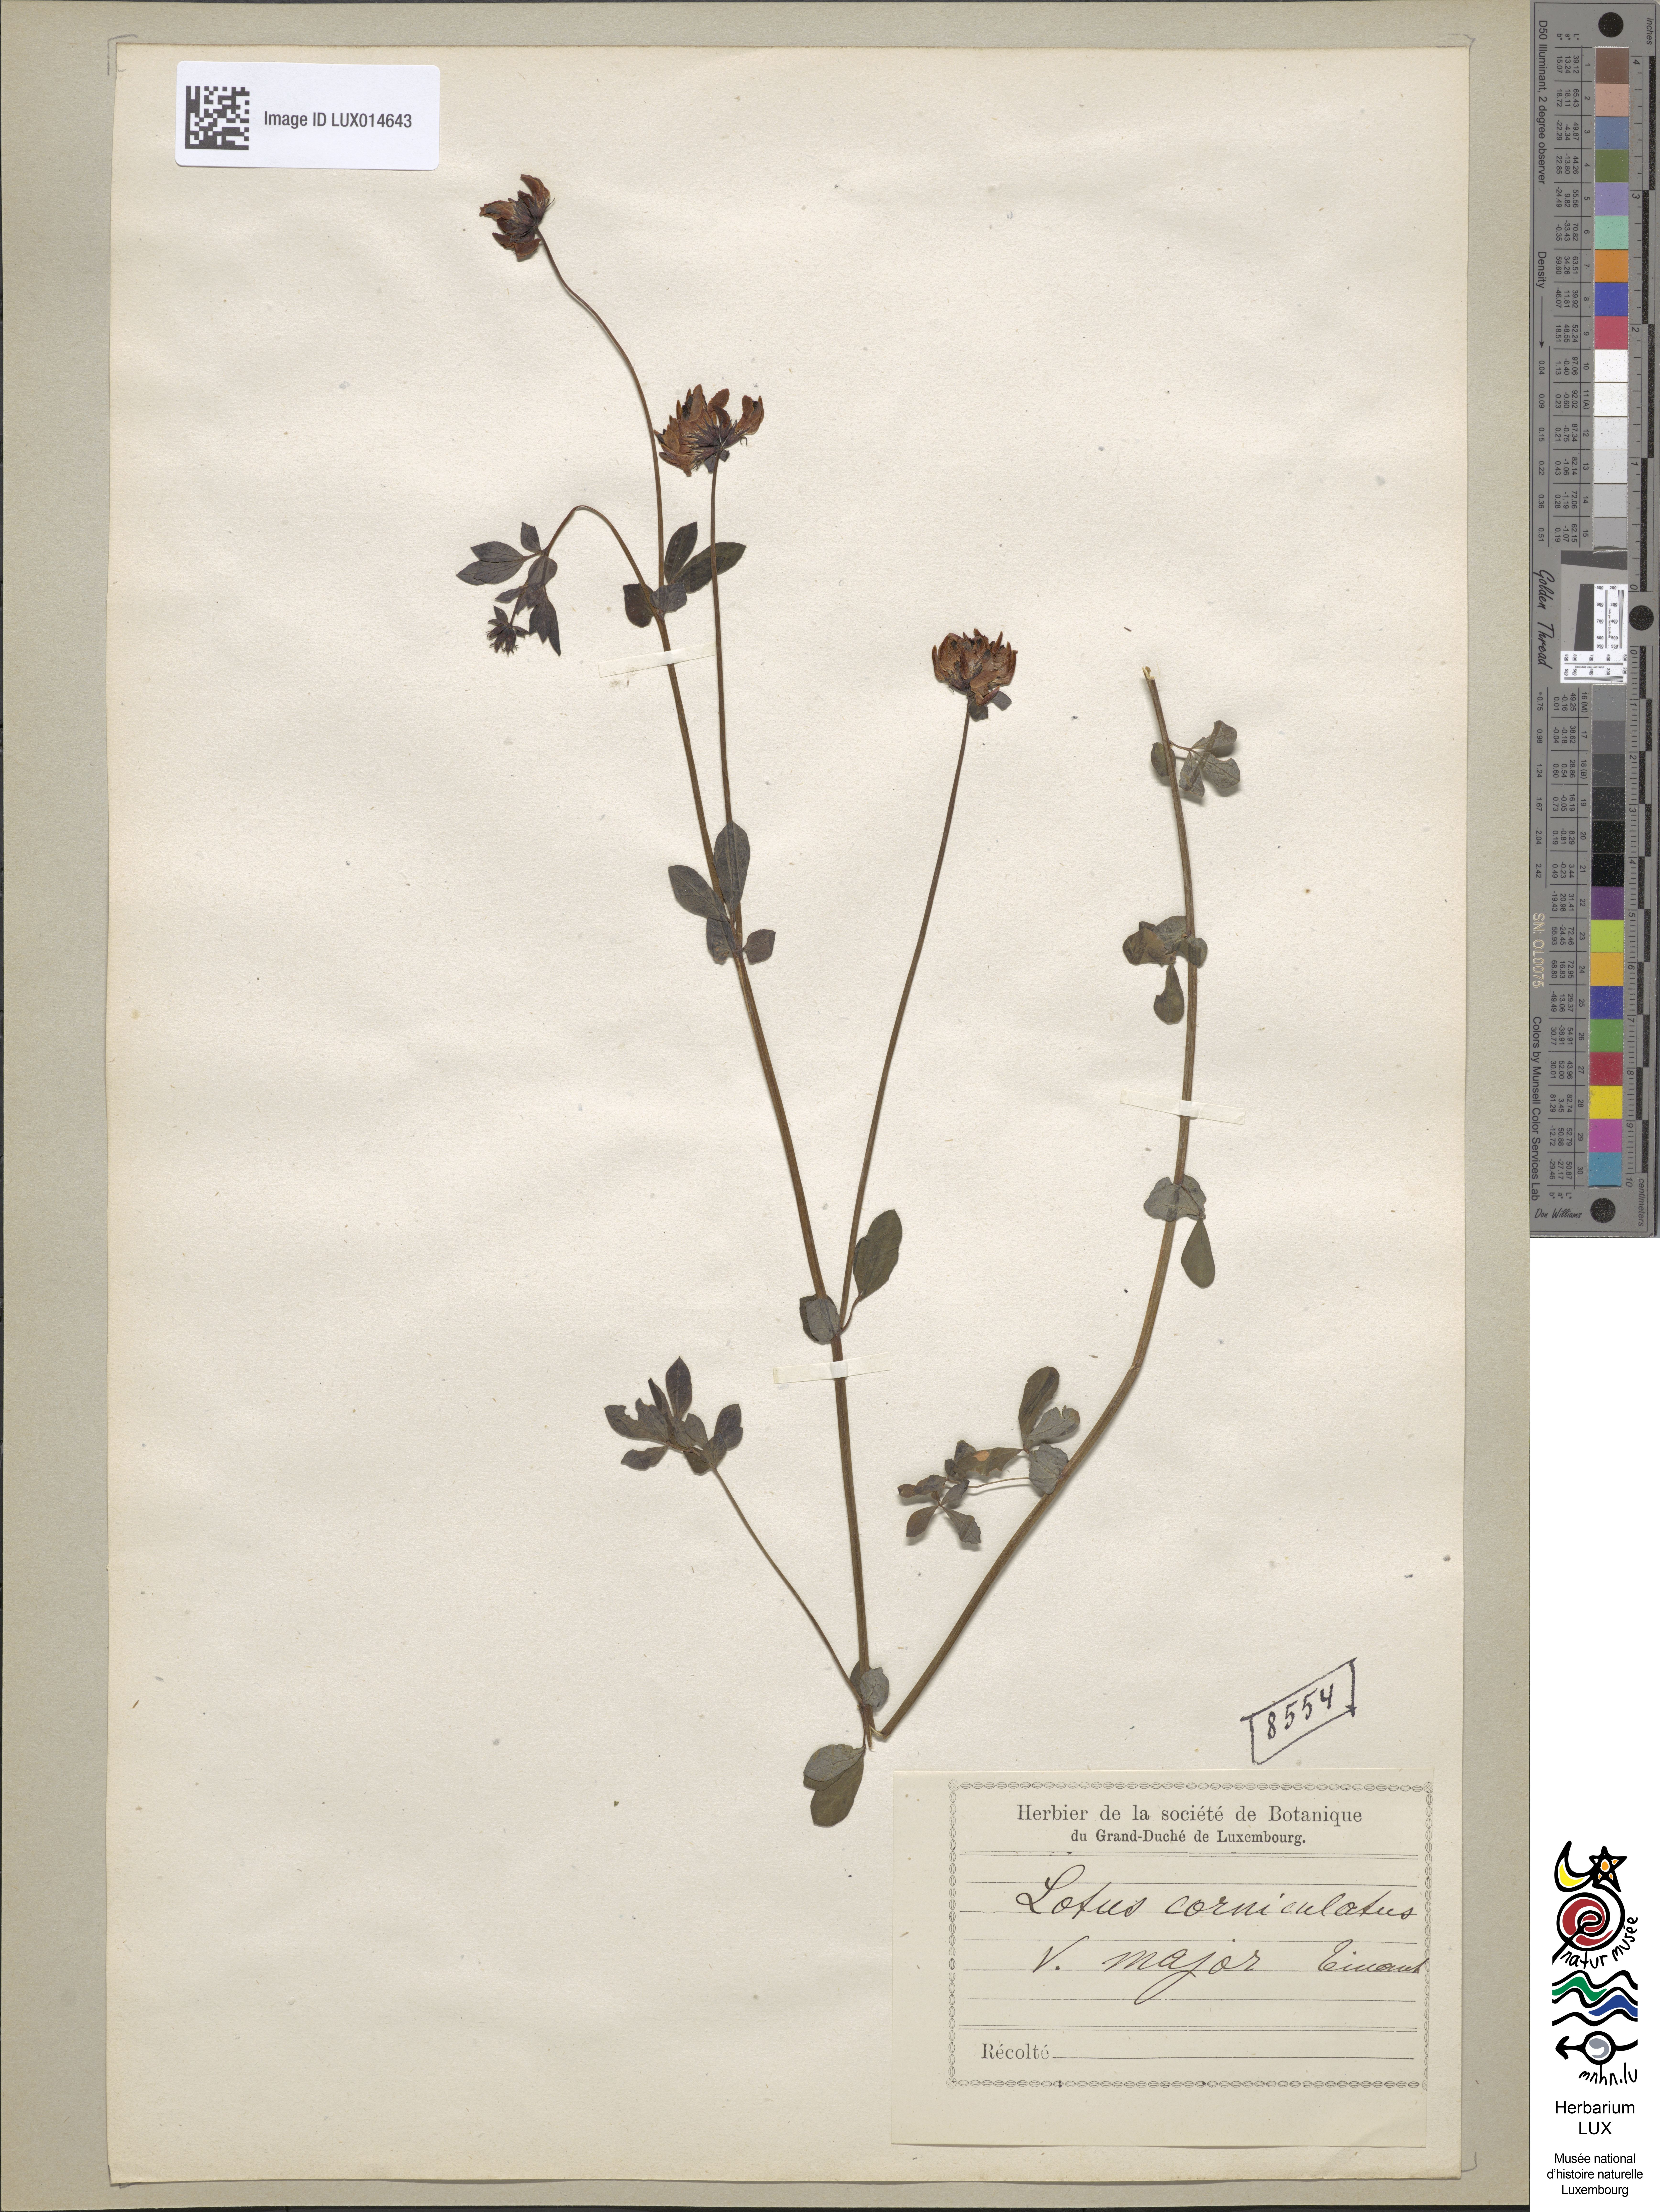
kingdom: Plantae
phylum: Tracheophyta
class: Magnoliopsida
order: Fabales
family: Fabaceae
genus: Lotus
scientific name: Lotus pedunculatus
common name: Greater birdsfoot-trefoil
